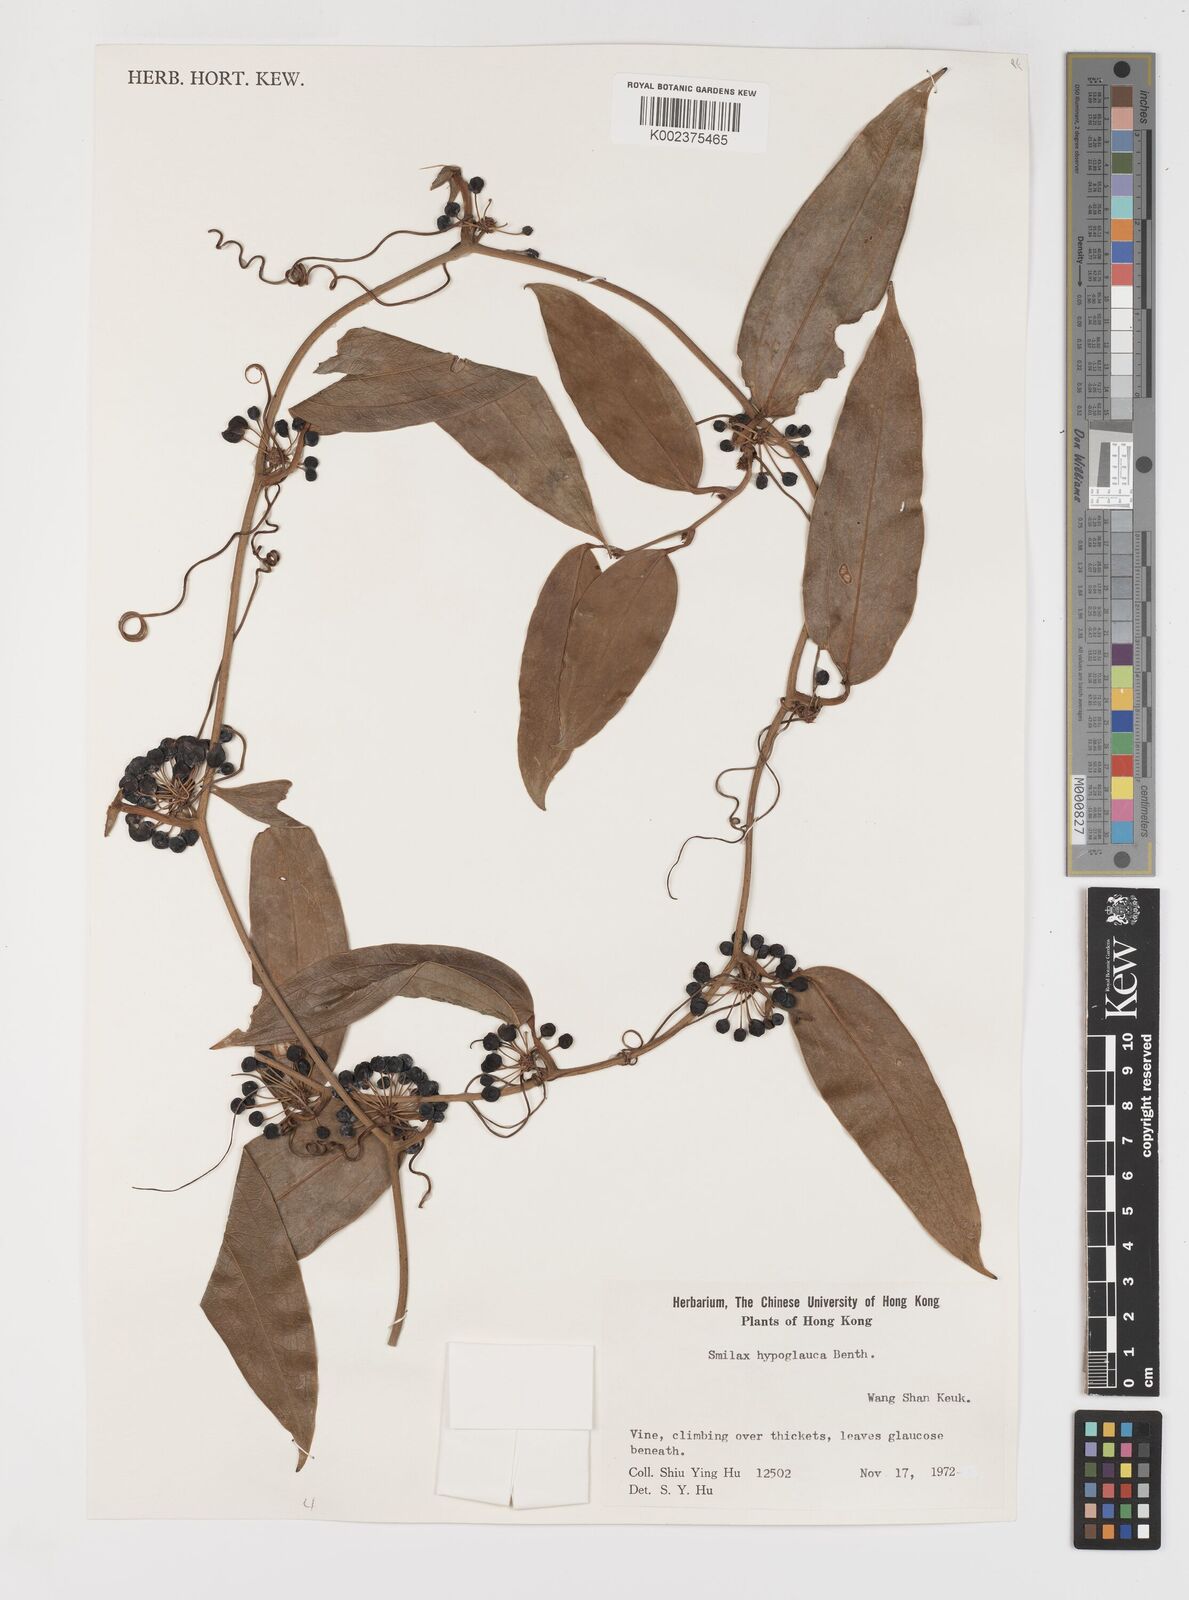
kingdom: Plantae
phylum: Tracheophyta
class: Liliopsida
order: Liliales
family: Smilacaceae
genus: Smilax
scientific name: Smilax hypoglauca
